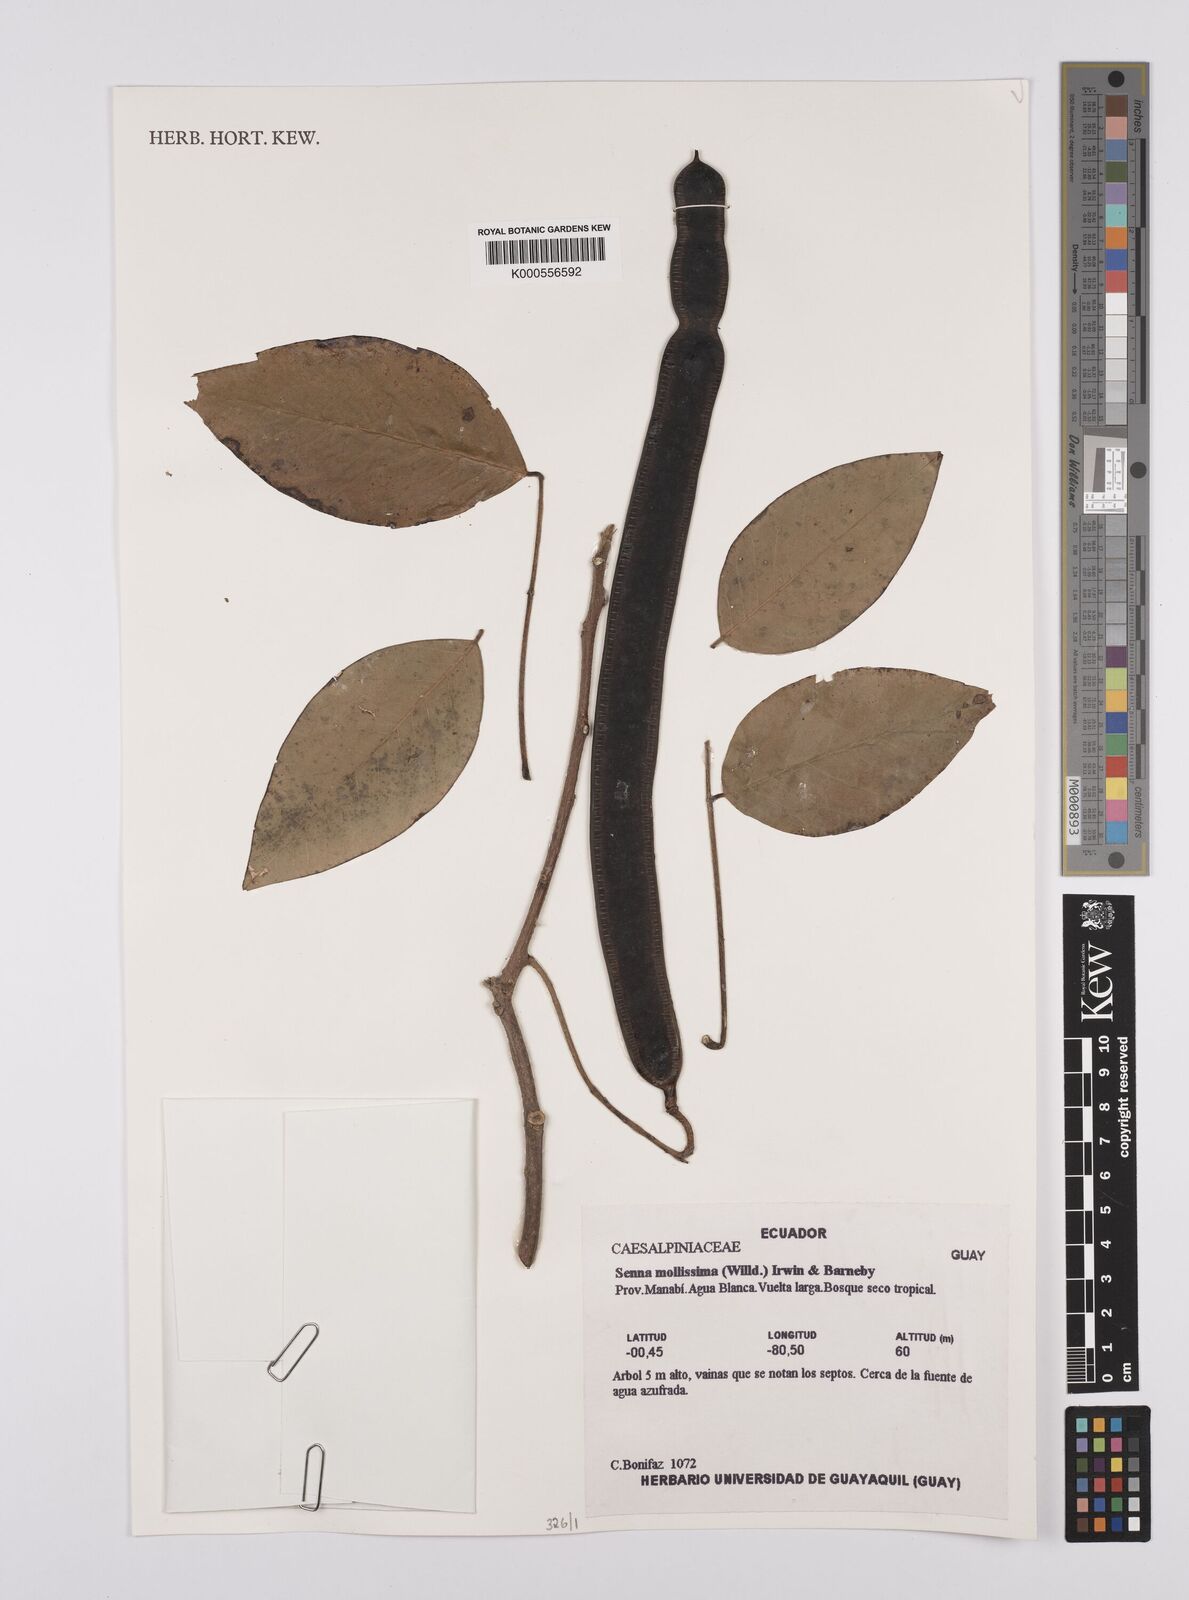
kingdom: Plantae
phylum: Tracheophyta
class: Magnoliopsida
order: Fabales
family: Fabaceae
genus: Senna
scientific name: Senna mollissima
